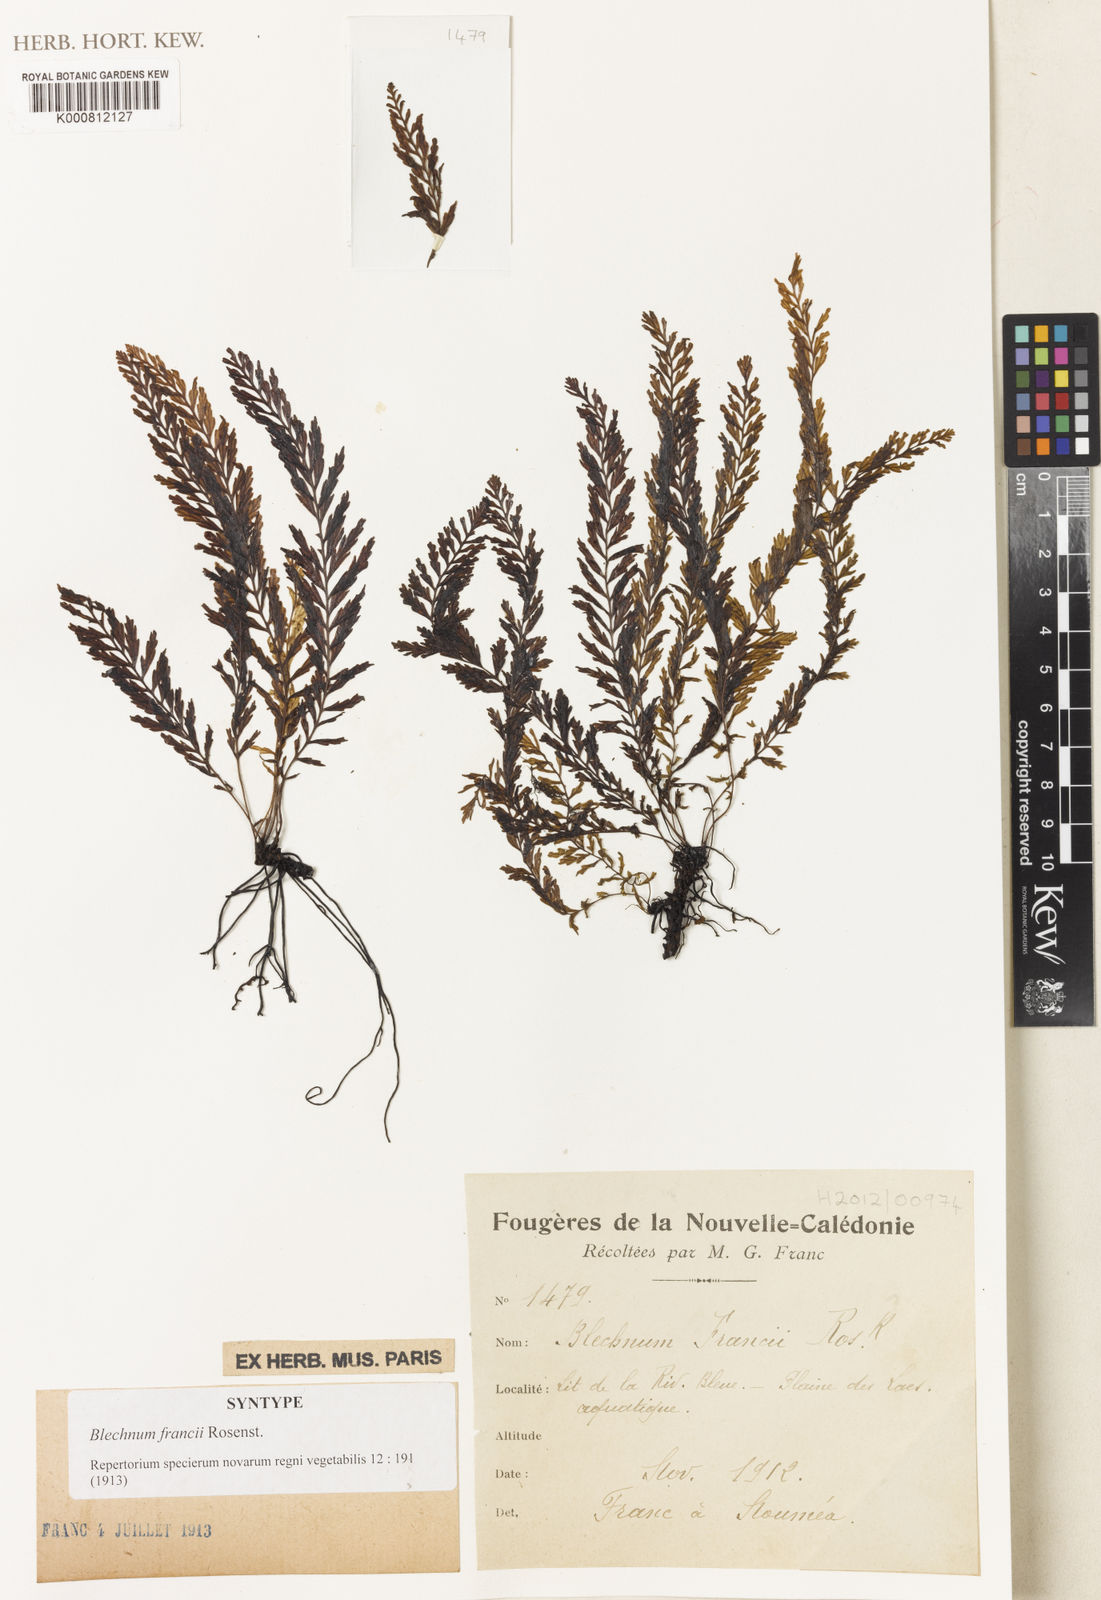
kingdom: Plantae
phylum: Tracheophyta
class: Polypodiopsida
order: Polypodiales
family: Blechnaceae
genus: Oceaniopteris
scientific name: Oceaniopteris francii
